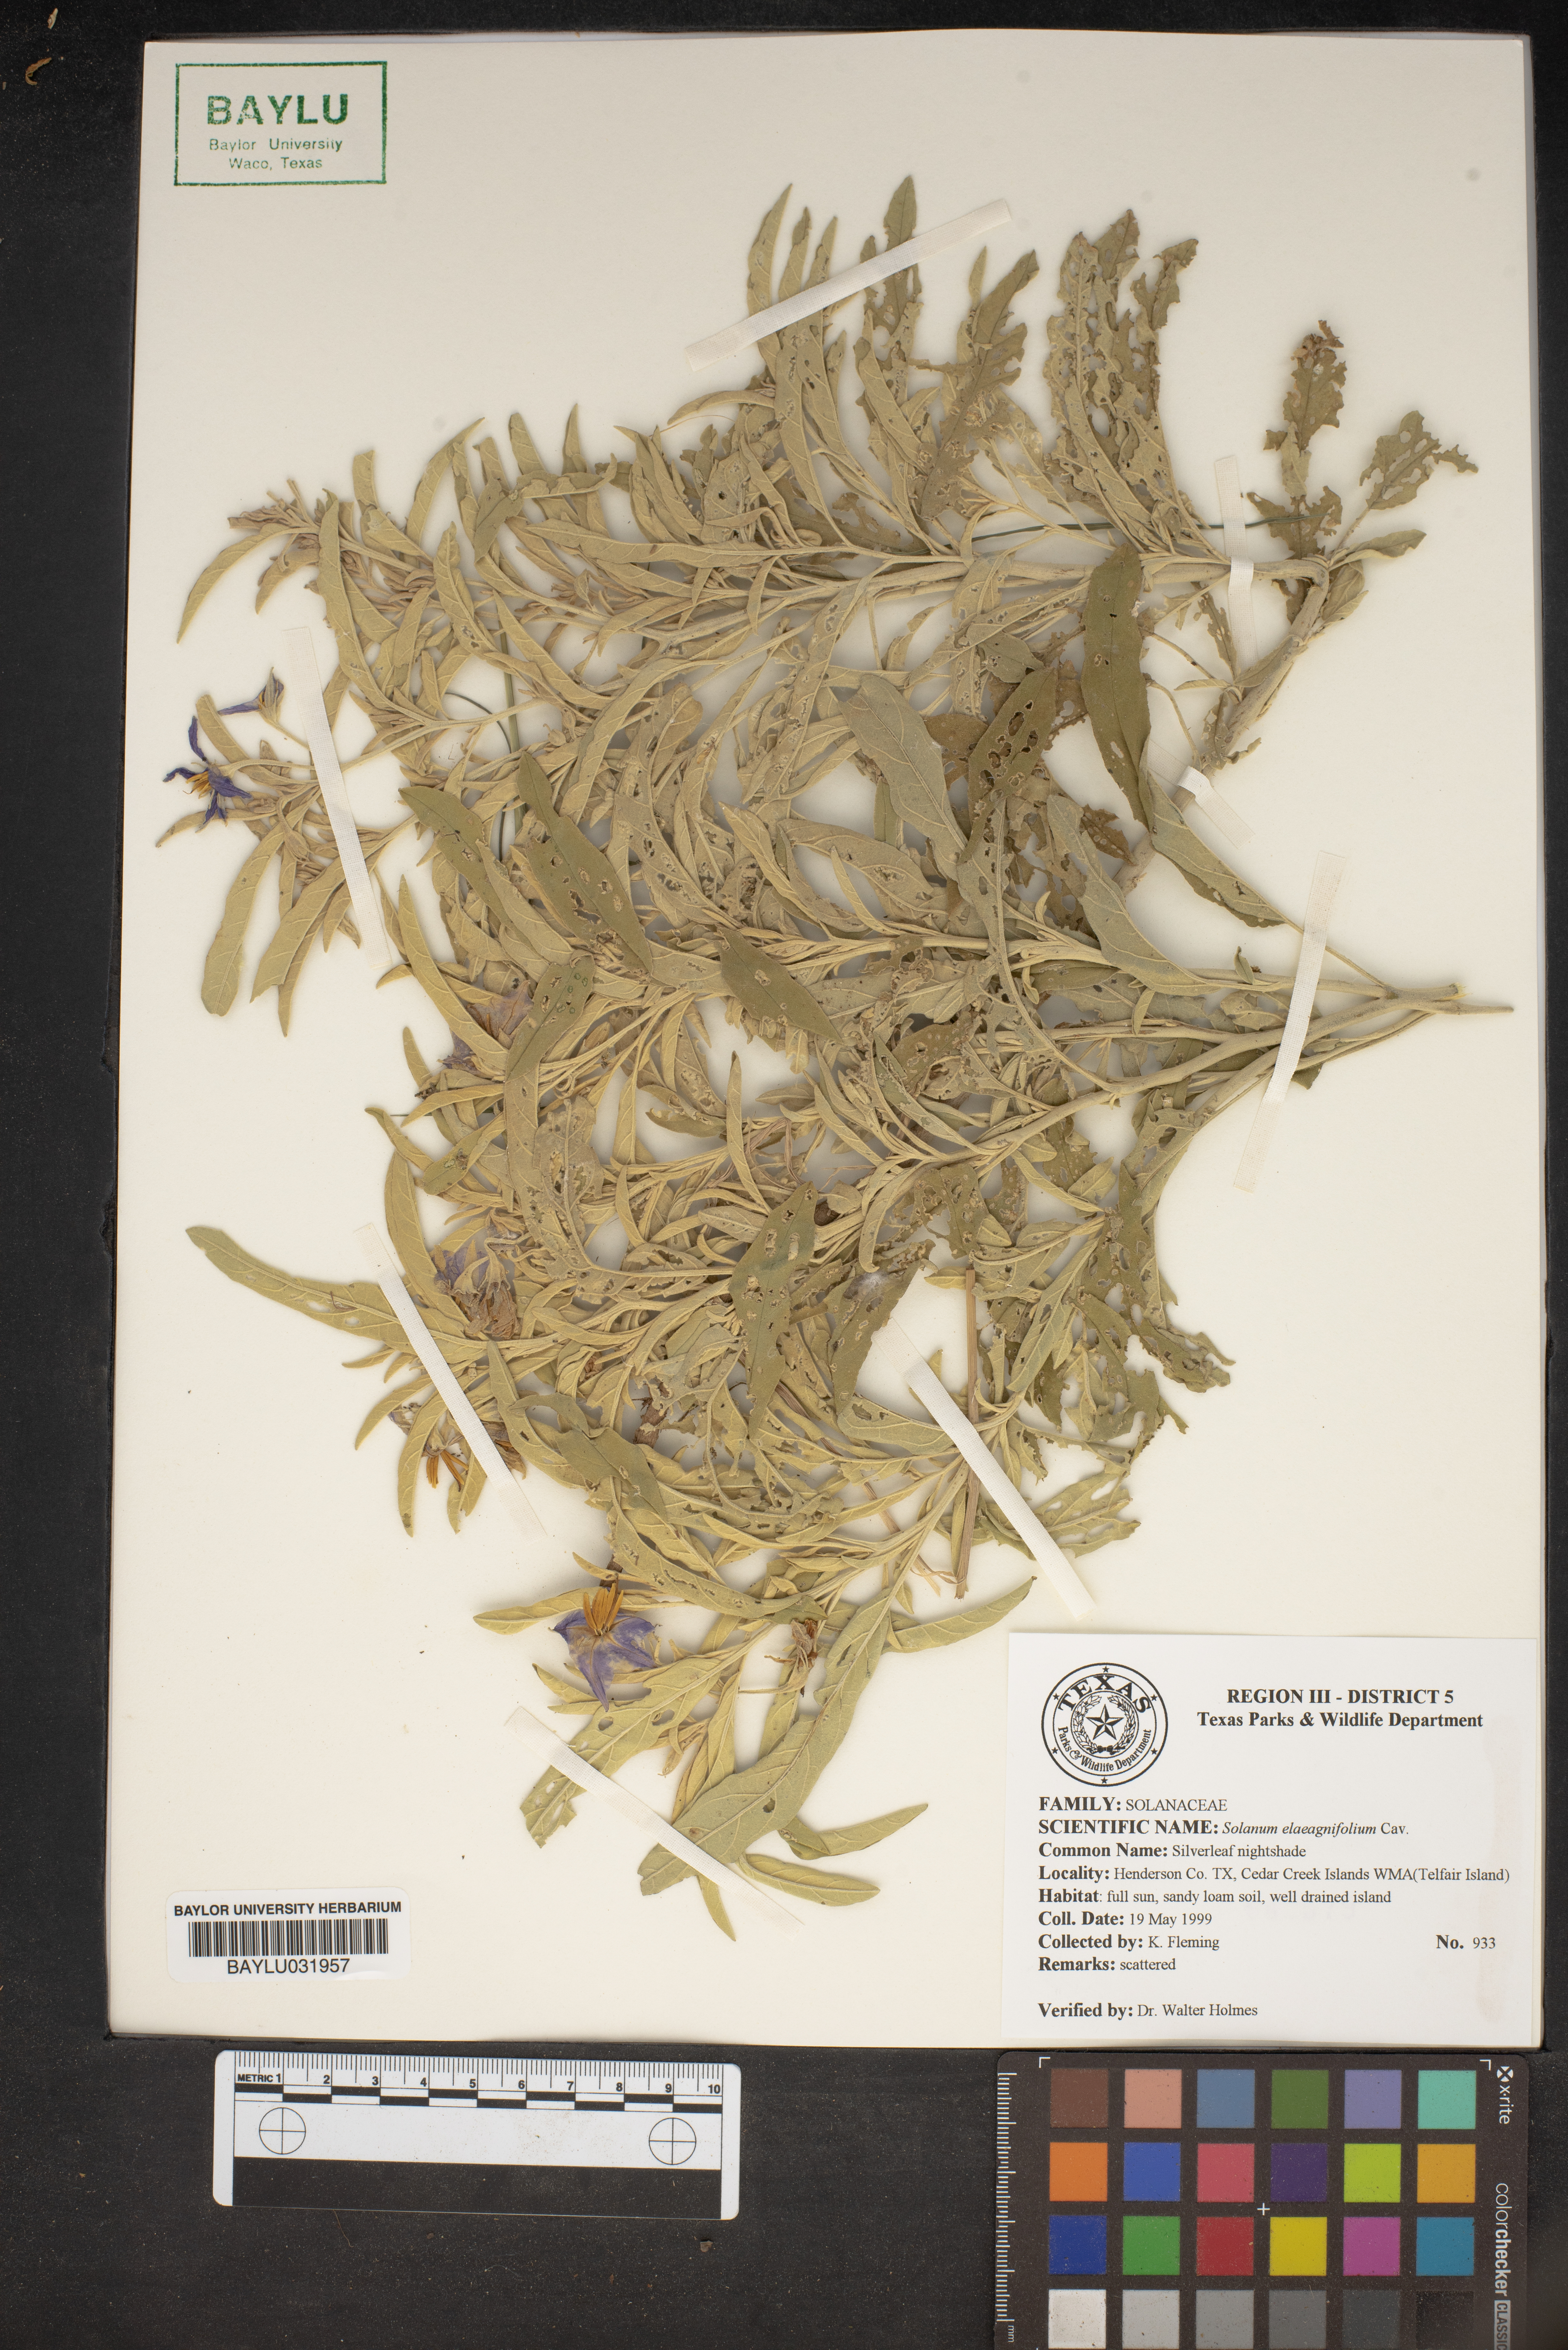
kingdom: Plantae
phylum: Tracheophyta
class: Magnoliopsida
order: Solanales
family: Solanaceae
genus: Solanum
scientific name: Solanum elaeagnifolium
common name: Silverleaf nightshade
